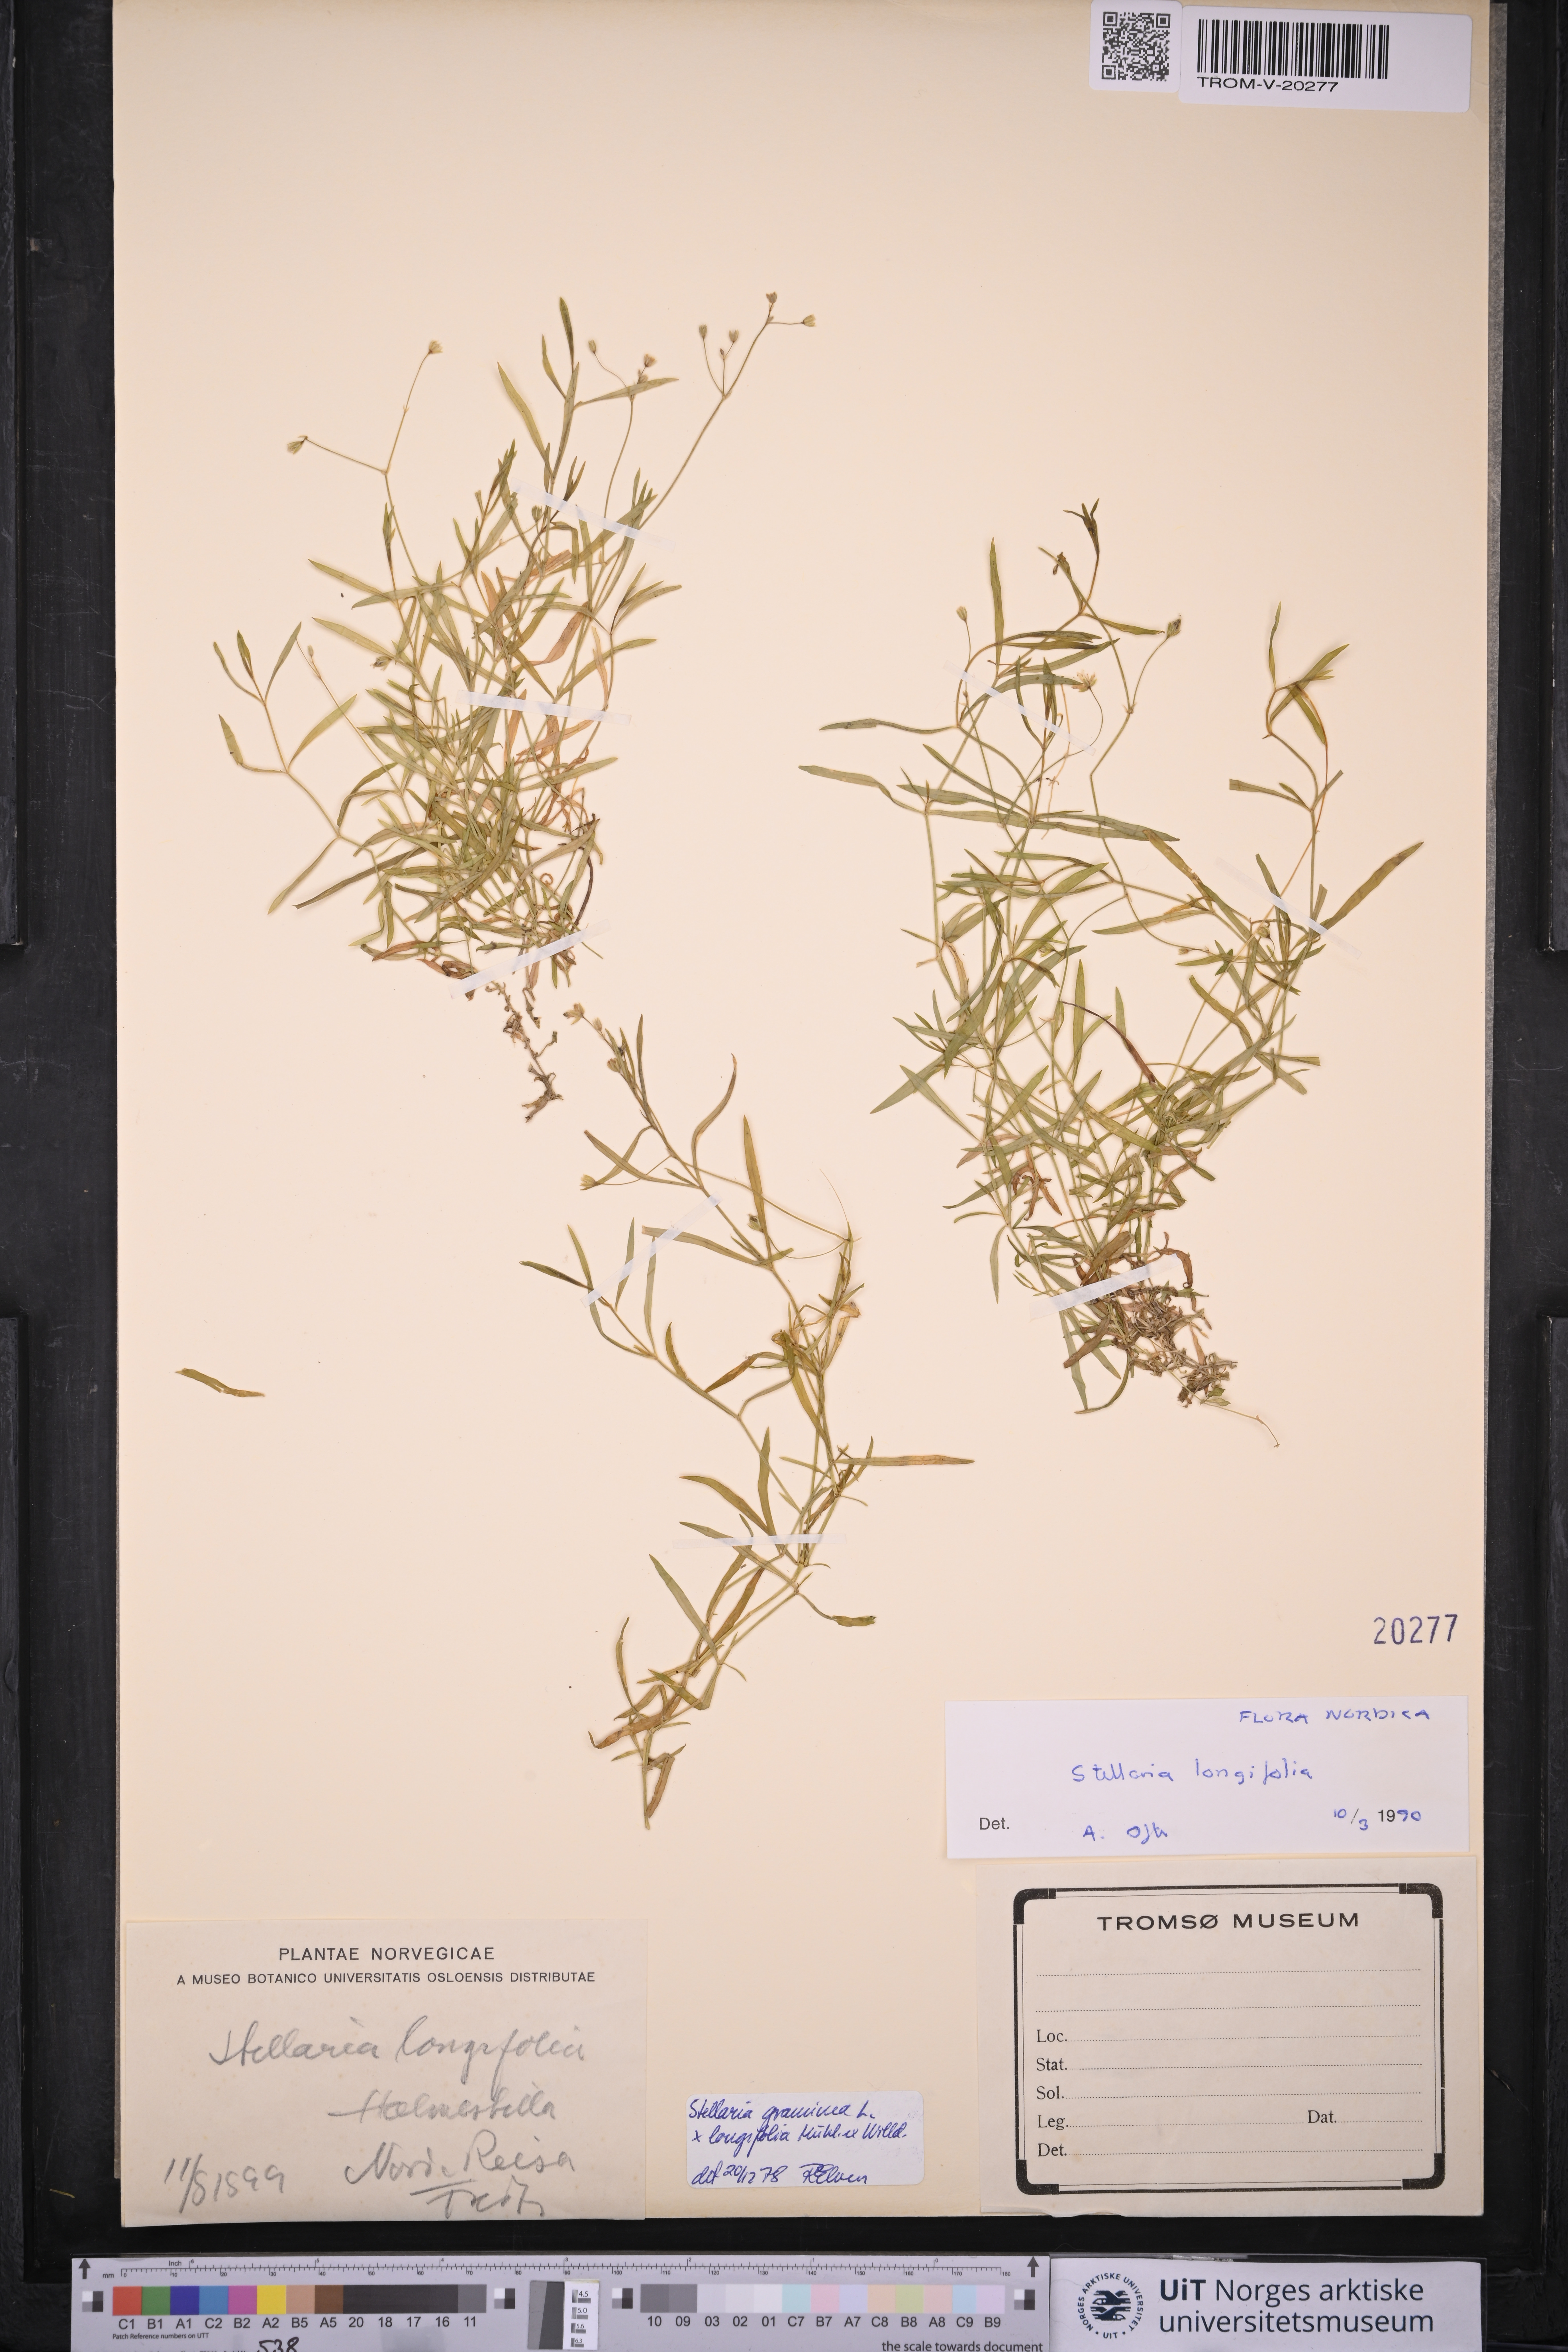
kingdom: Plantae
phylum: Tracheophyta
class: Magnoliopsida
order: Caryophyllales
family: Caryophyllaceae
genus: Stellaria
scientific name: Stellaria longifolia
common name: Long-leaved chickweed
